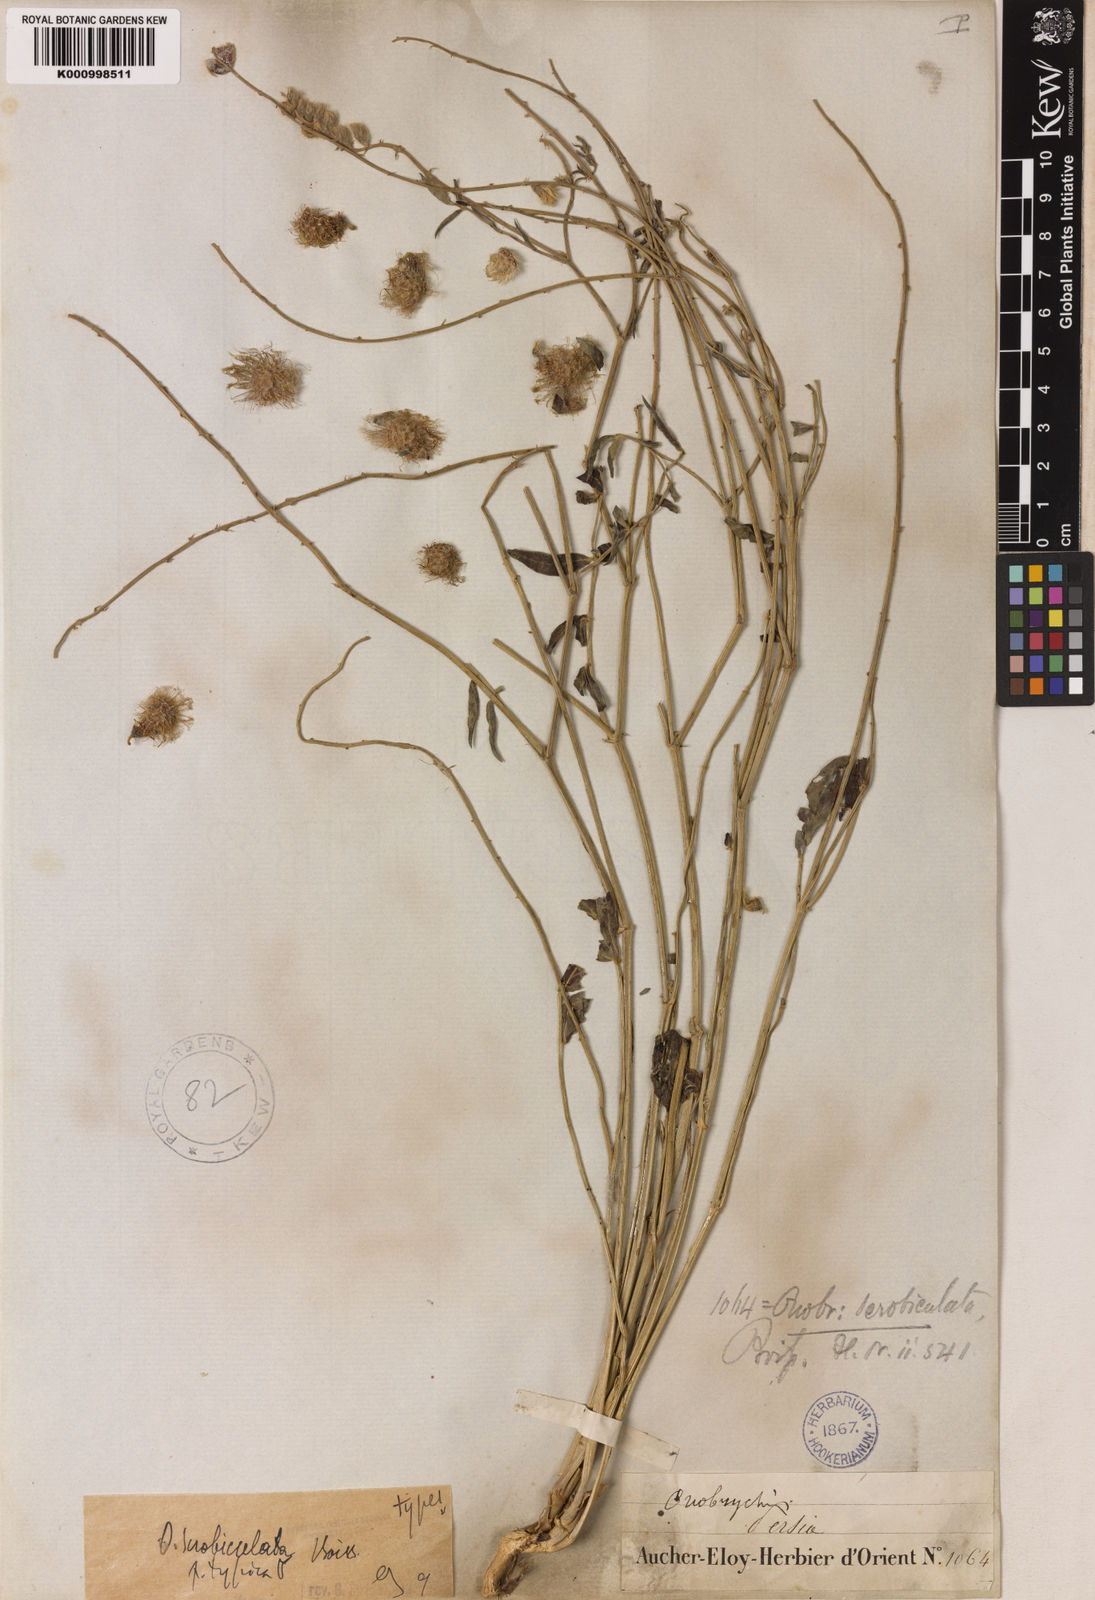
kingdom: Plantae
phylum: Tracheophyta
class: Magnoliopsida
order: Fabales
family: Fabaceae
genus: Onobrychis
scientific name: Onobrychis scrobiculata
